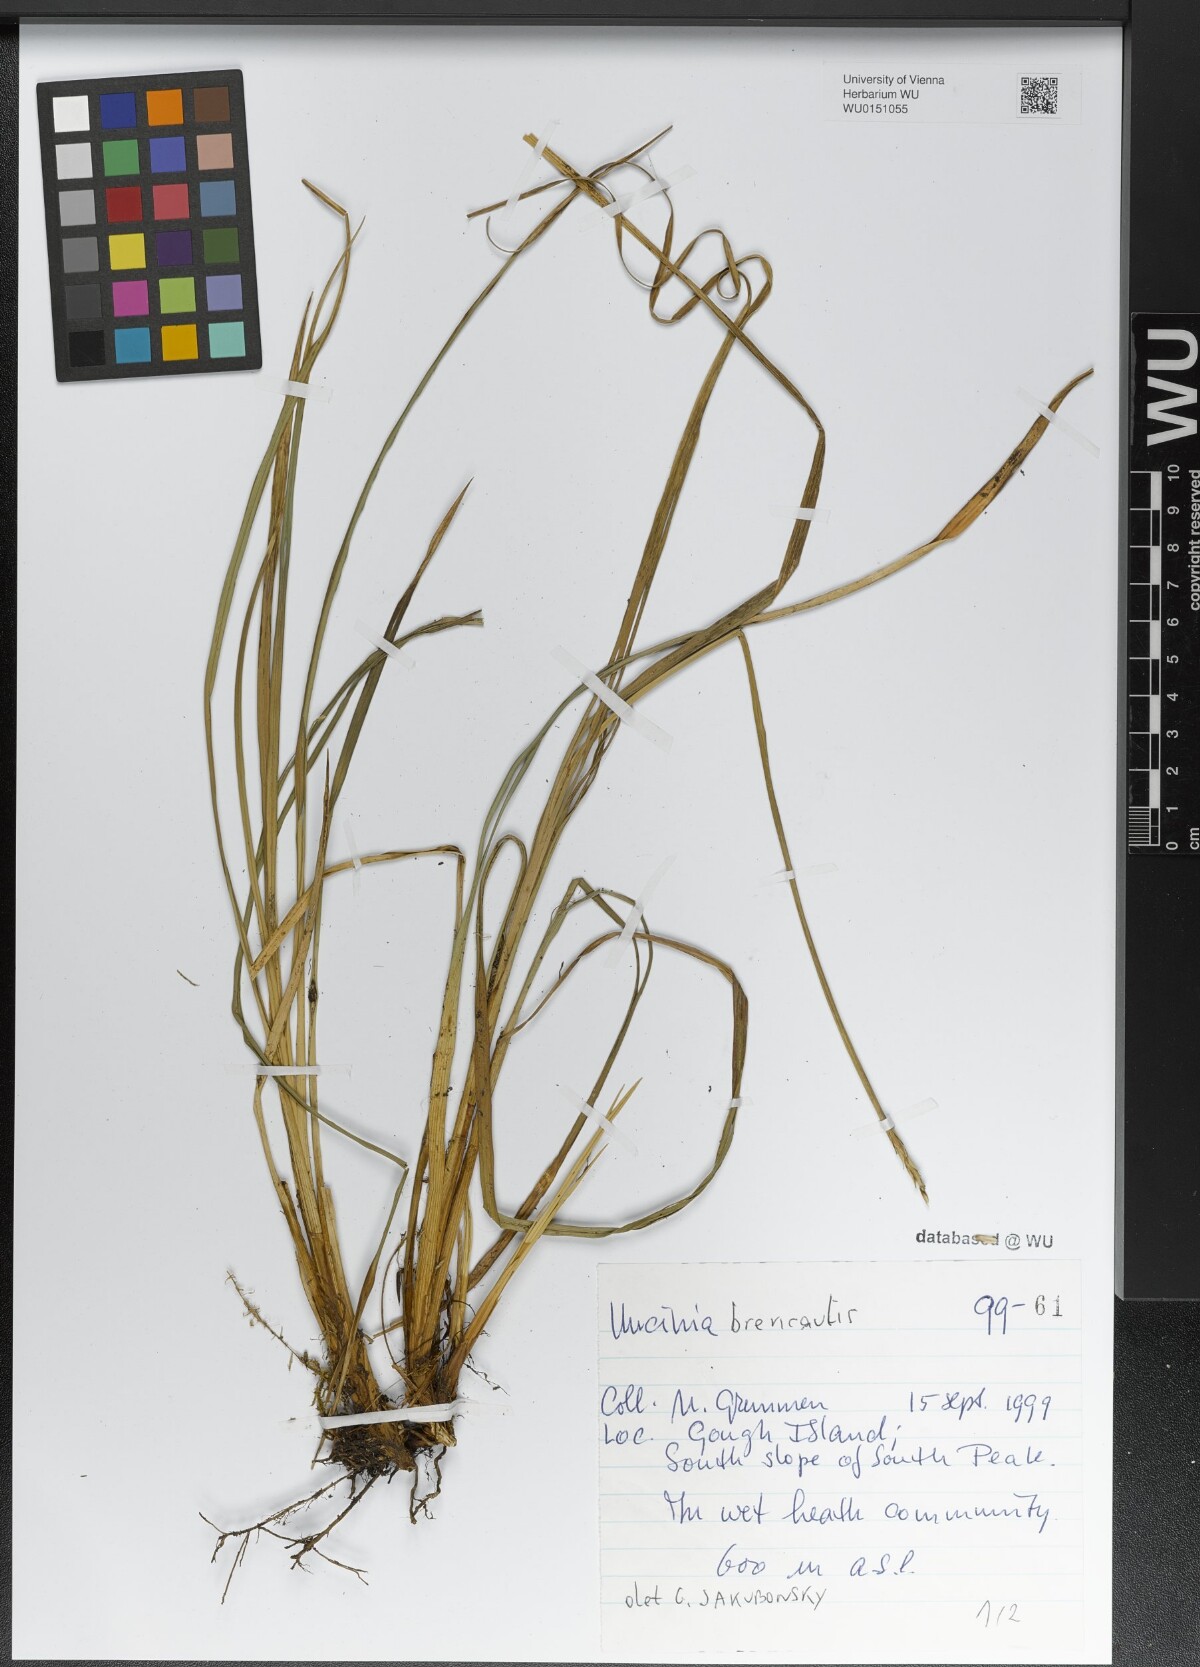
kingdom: Plantae
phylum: Tracheophyta
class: Liliopsida
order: Poales
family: Cyperaceae
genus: Carex
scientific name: Carex Uncinia brevicaulis
